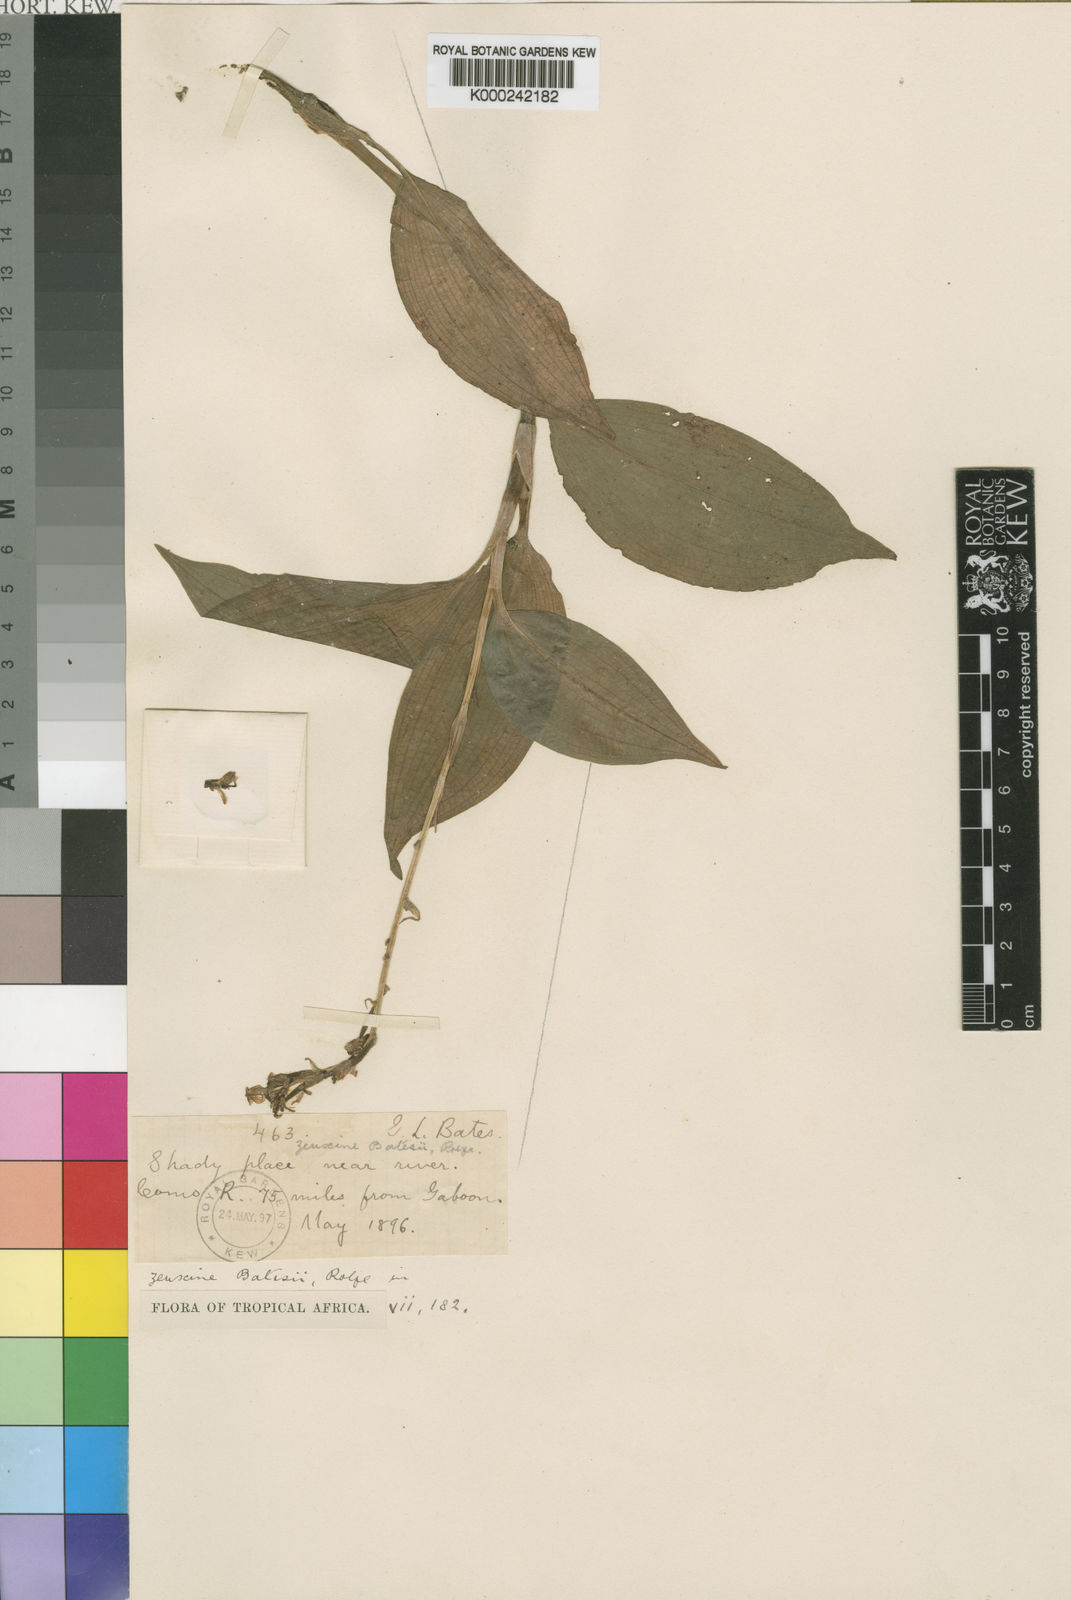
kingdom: Plantae
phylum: Tracheophyta
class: Liliopsida
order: Asparagales
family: Orchidaceae
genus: Hetaeria
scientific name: Hetaeria mannii
